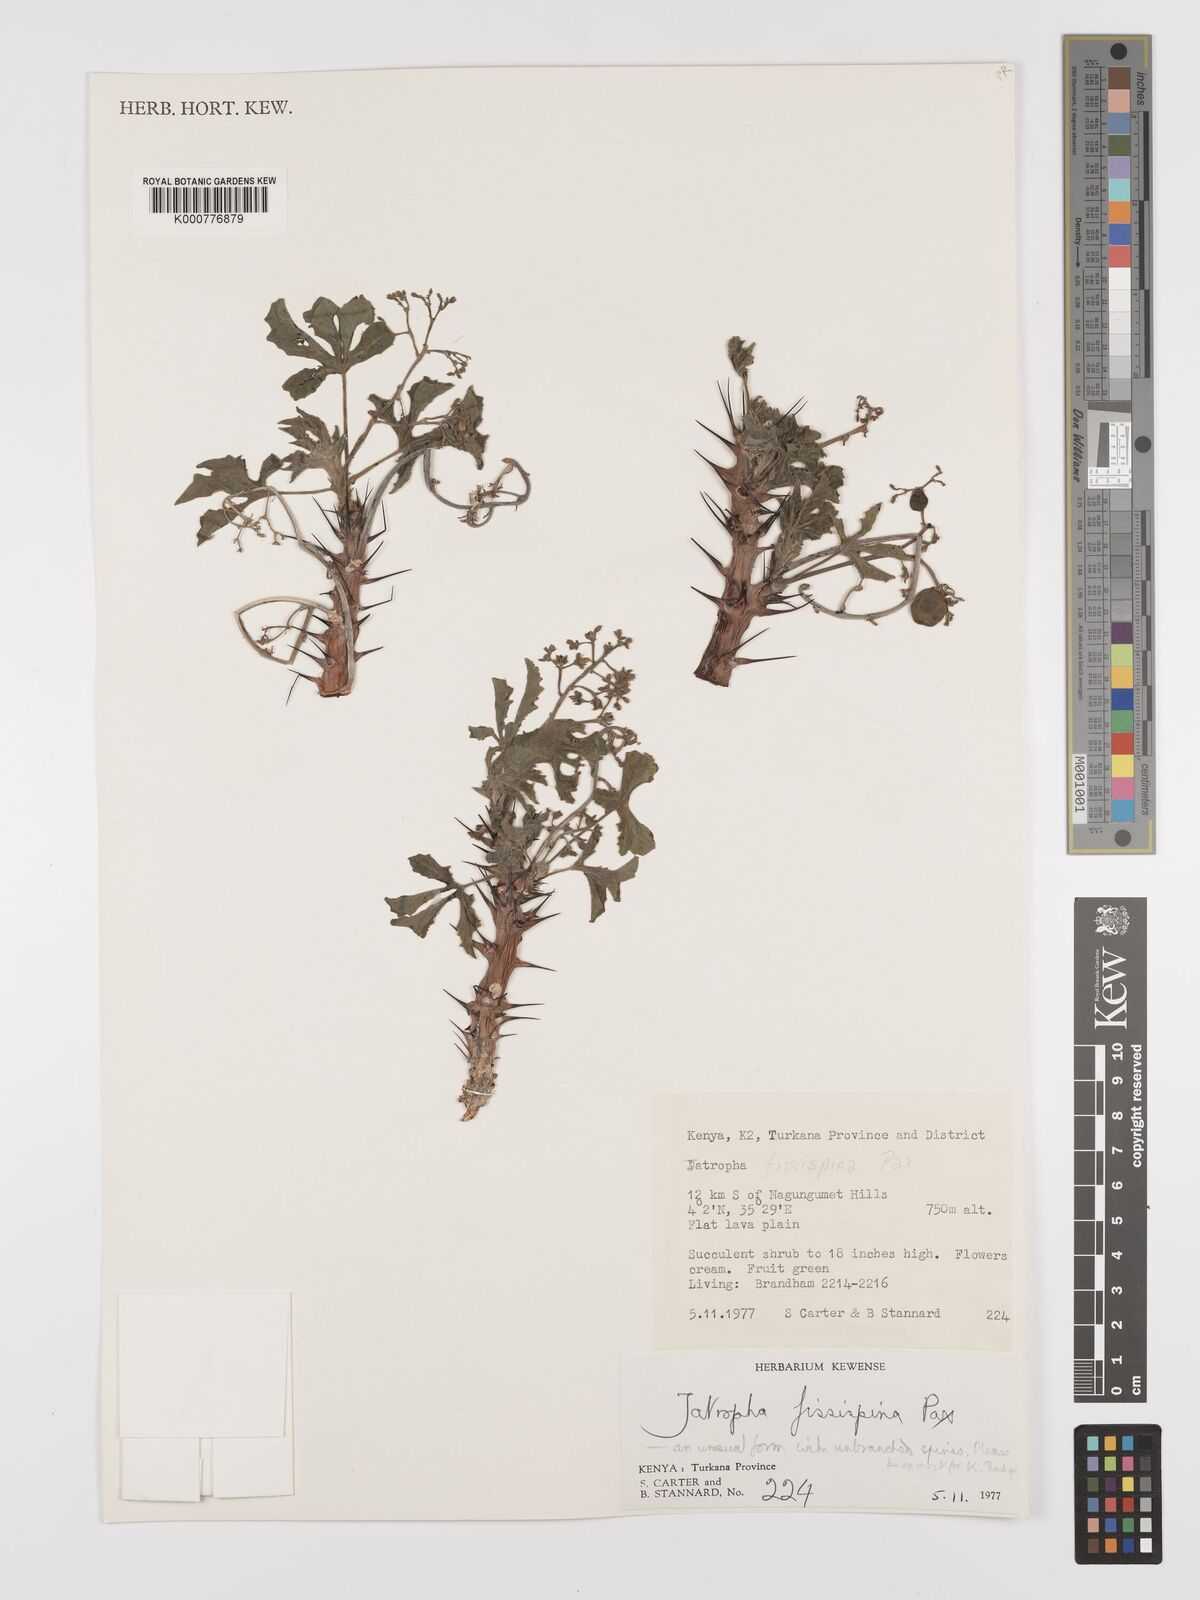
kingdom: Plantae
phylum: Tracheophyta
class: Magnoliopsida
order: Malpighiales
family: Euphorbiaceae
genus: Jatropha
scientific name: Jatropha ellenbeckii
